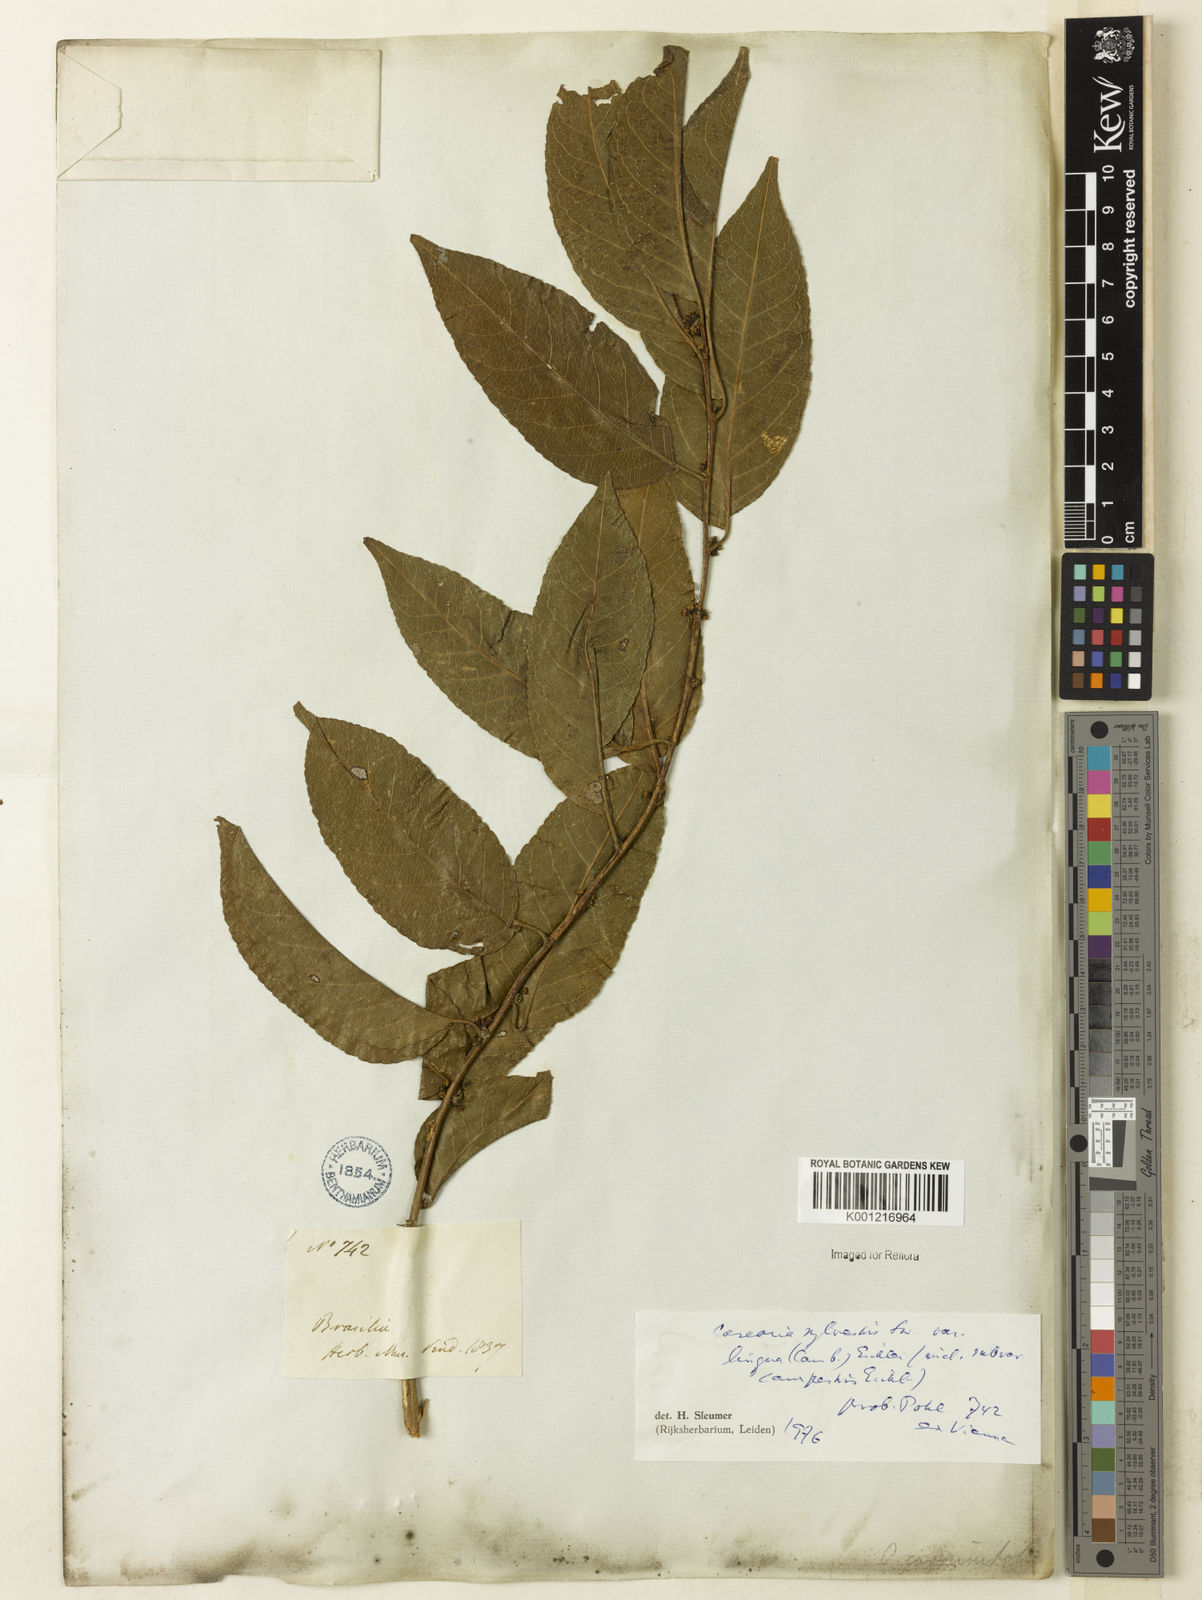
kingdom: Plantae
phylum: Tracheophyta
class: Magnoliopsida
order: Malpighiales
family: Salicaceae
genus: Casearia
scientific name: Casearia sylvestris
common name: Wild sage
